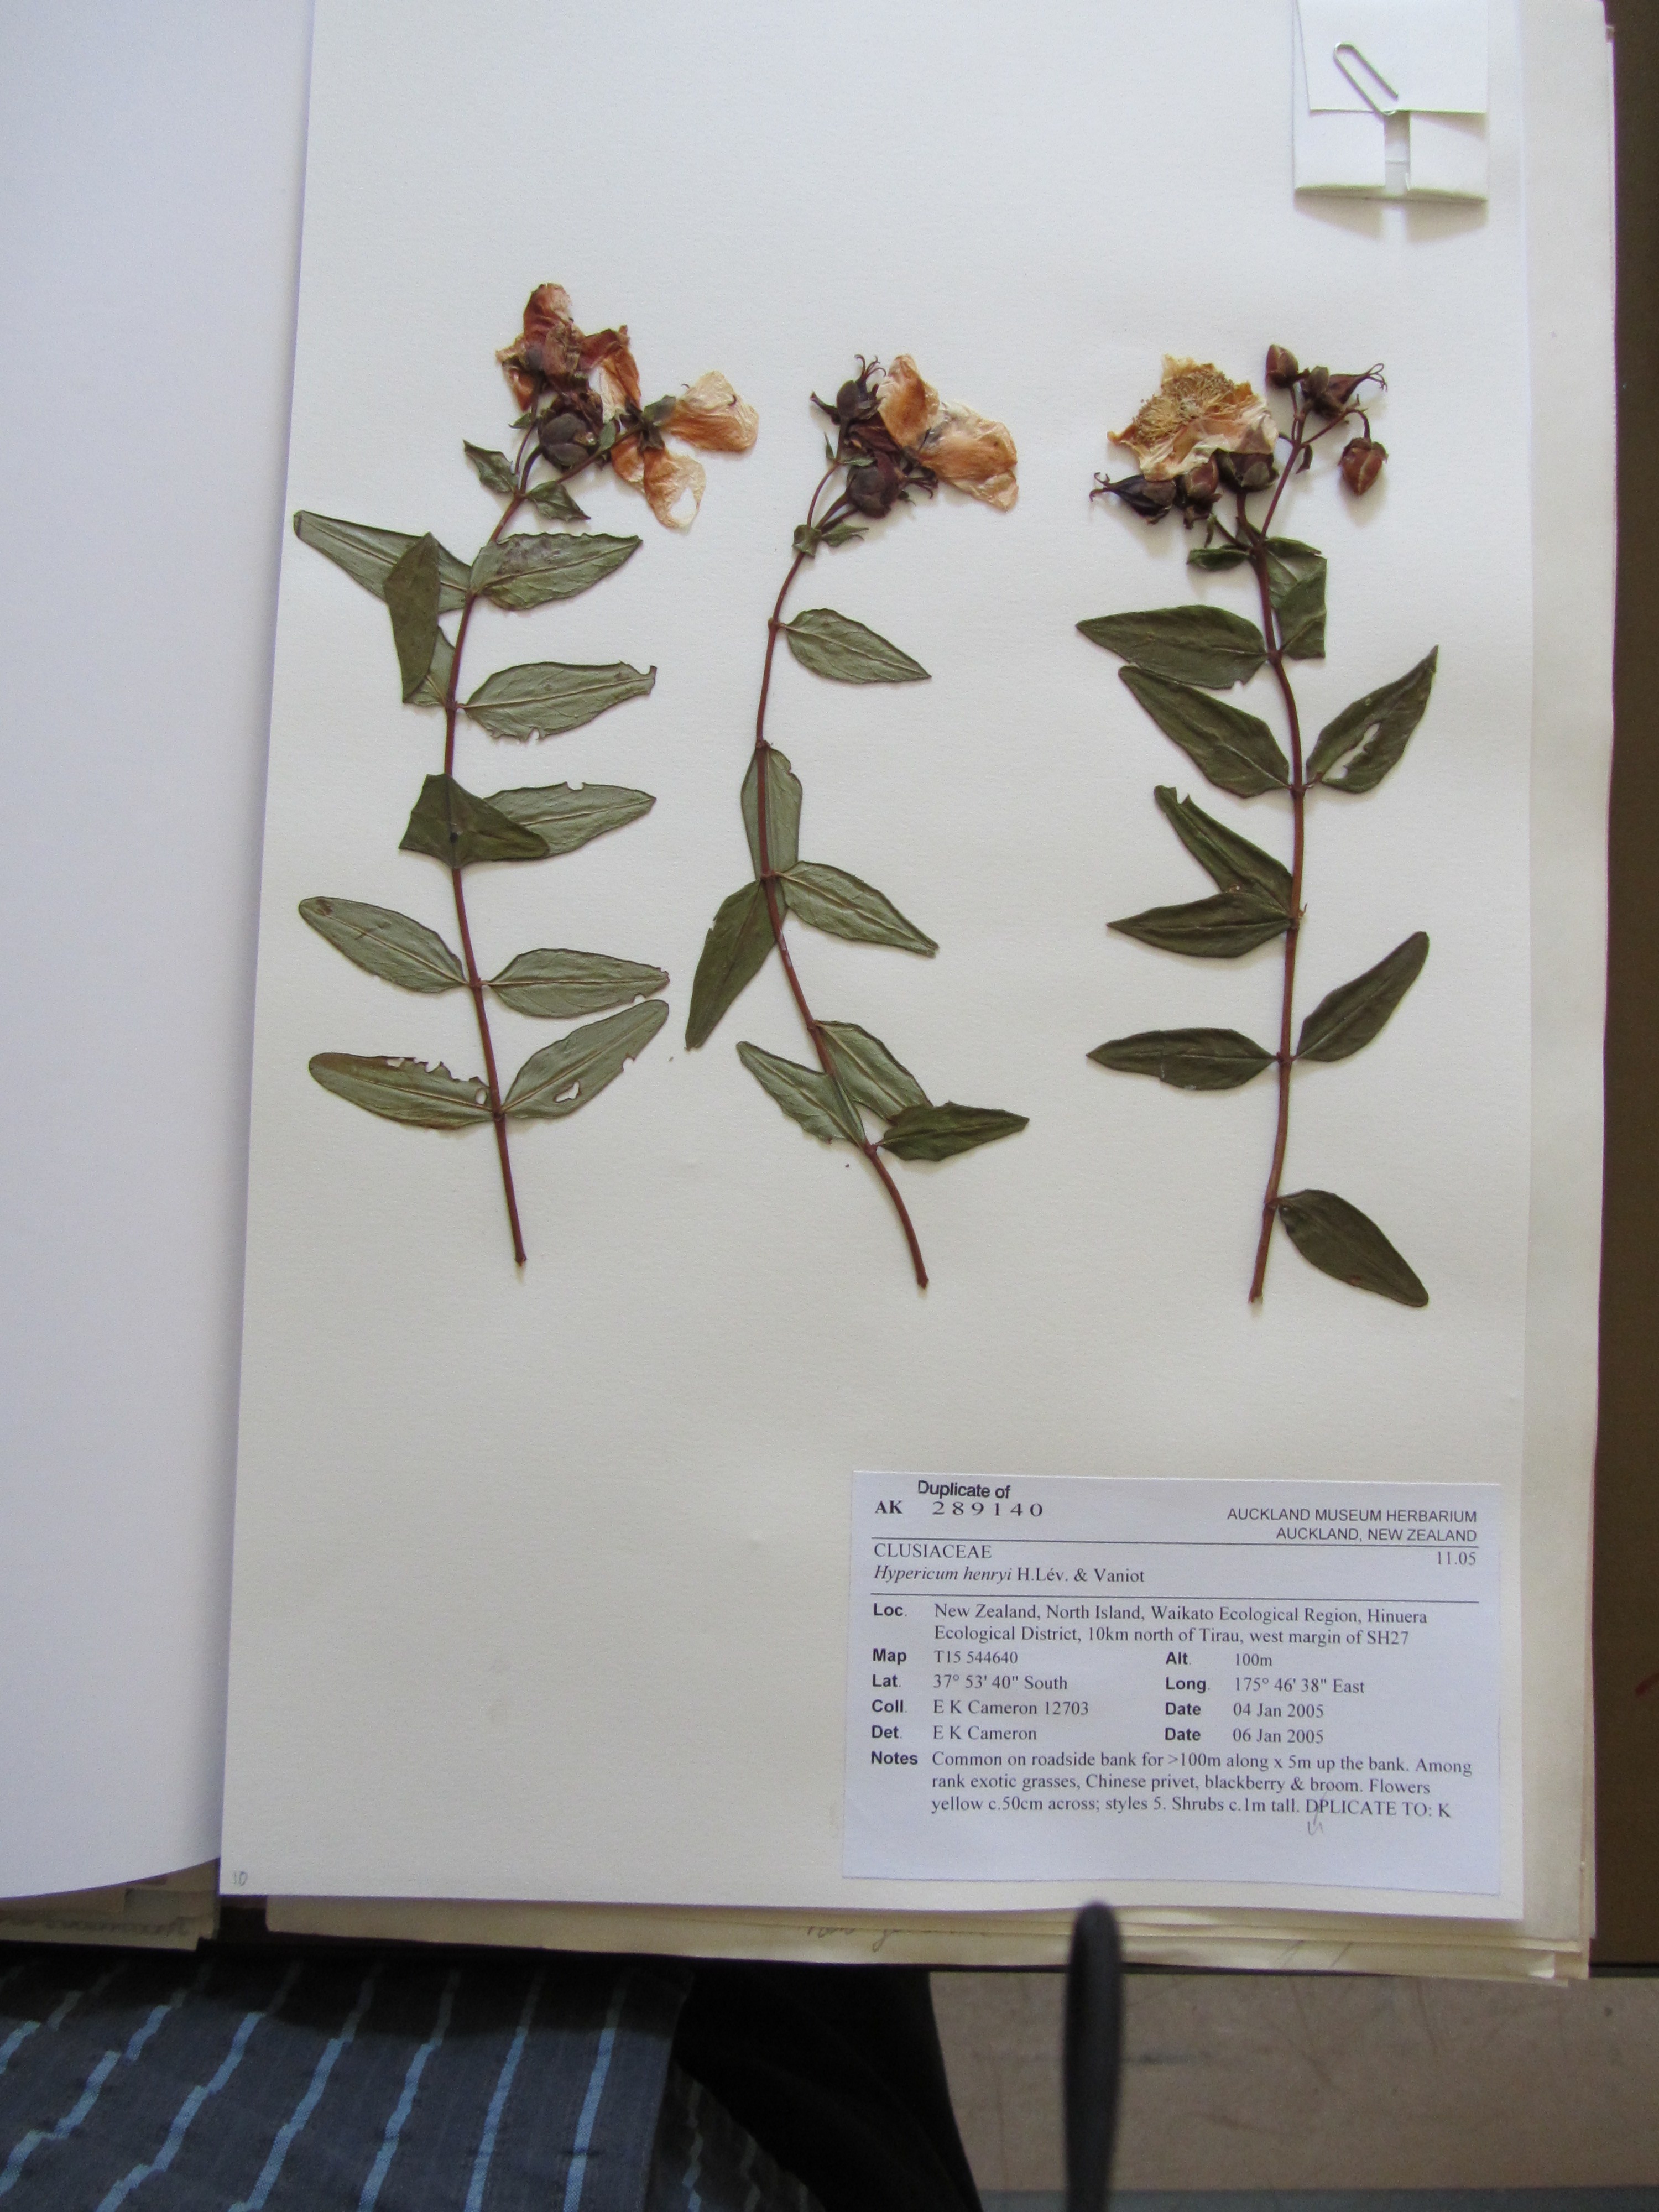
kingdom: Plantae
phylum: Tracheophyta
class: Magnoliopsida
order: Malpighiales
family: Hypericaceae
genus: Hypericum
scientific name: Hypericum henryi
